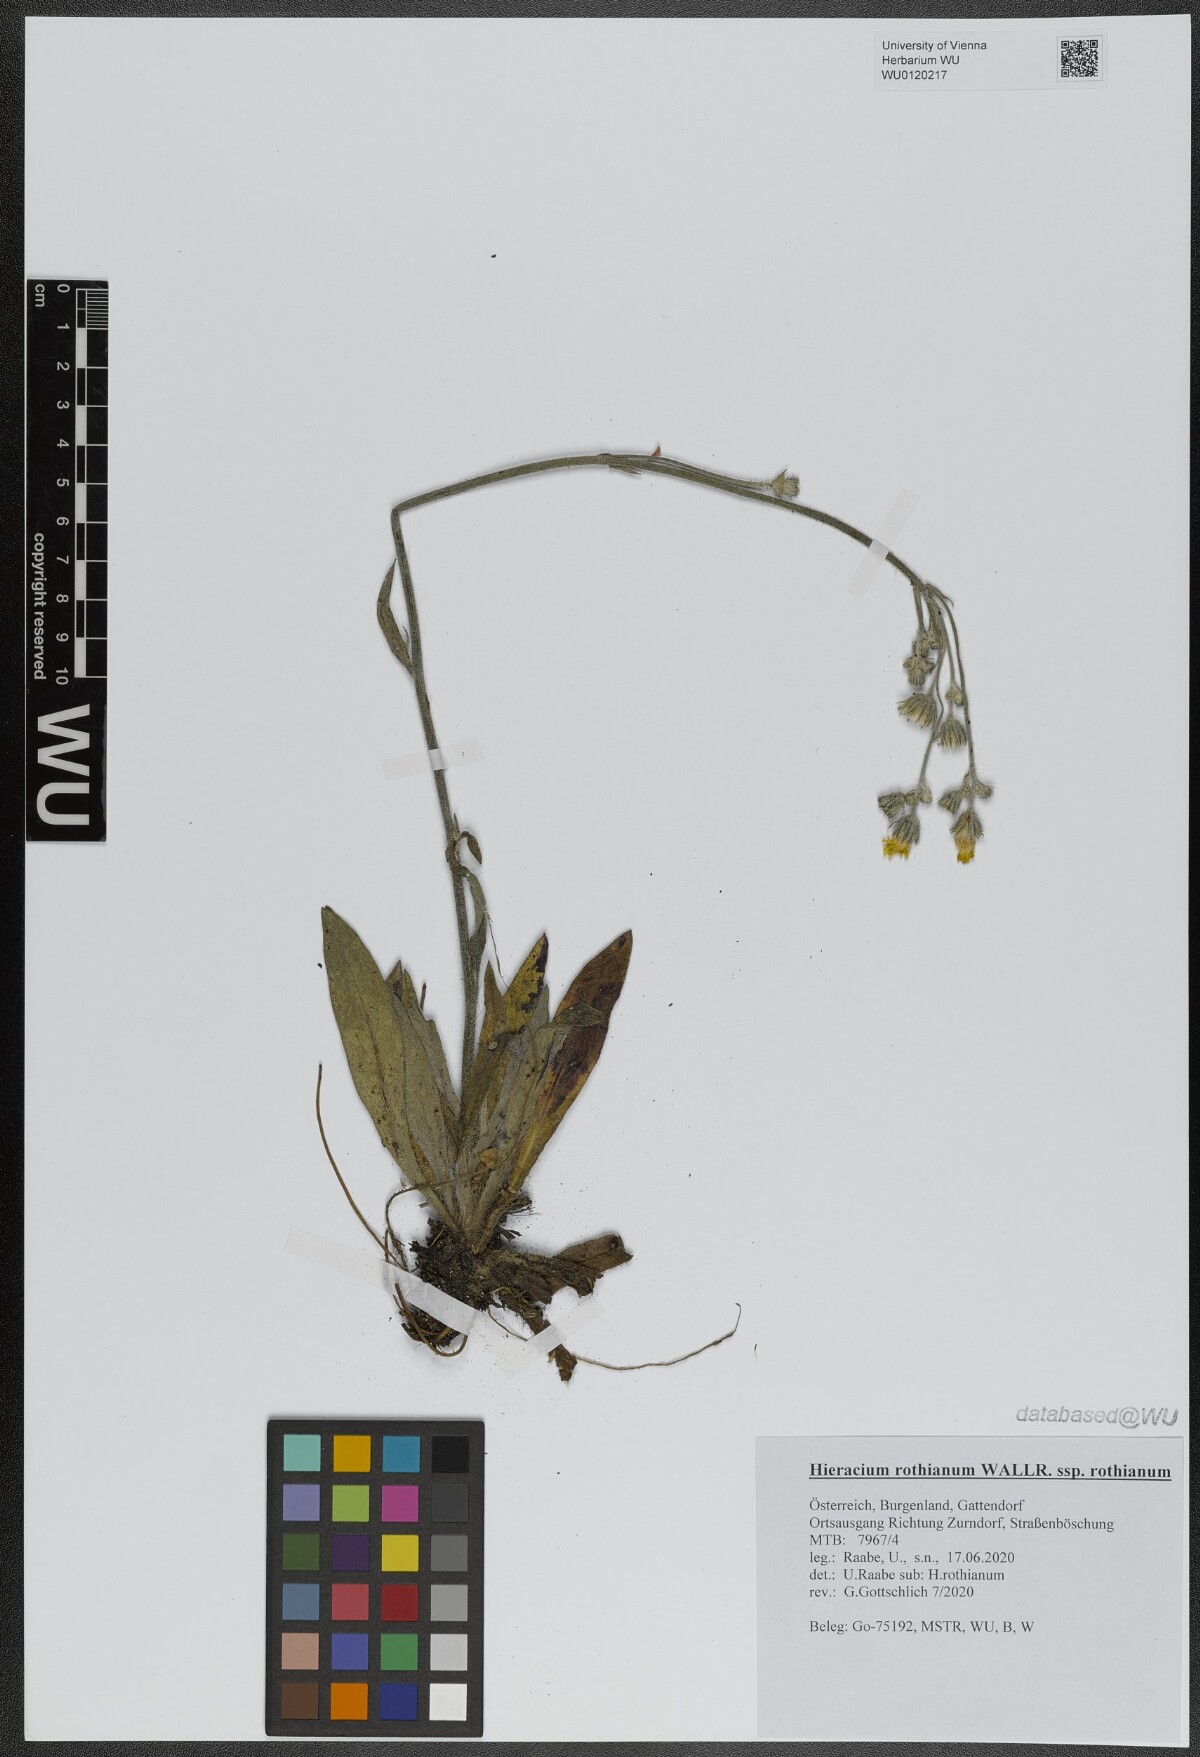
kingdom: Plantae
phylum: Tracheophyta
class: Magnoliopsida
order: Asterales
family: Asteraceae
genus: Pilosella
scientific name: Pilosella rothiana
